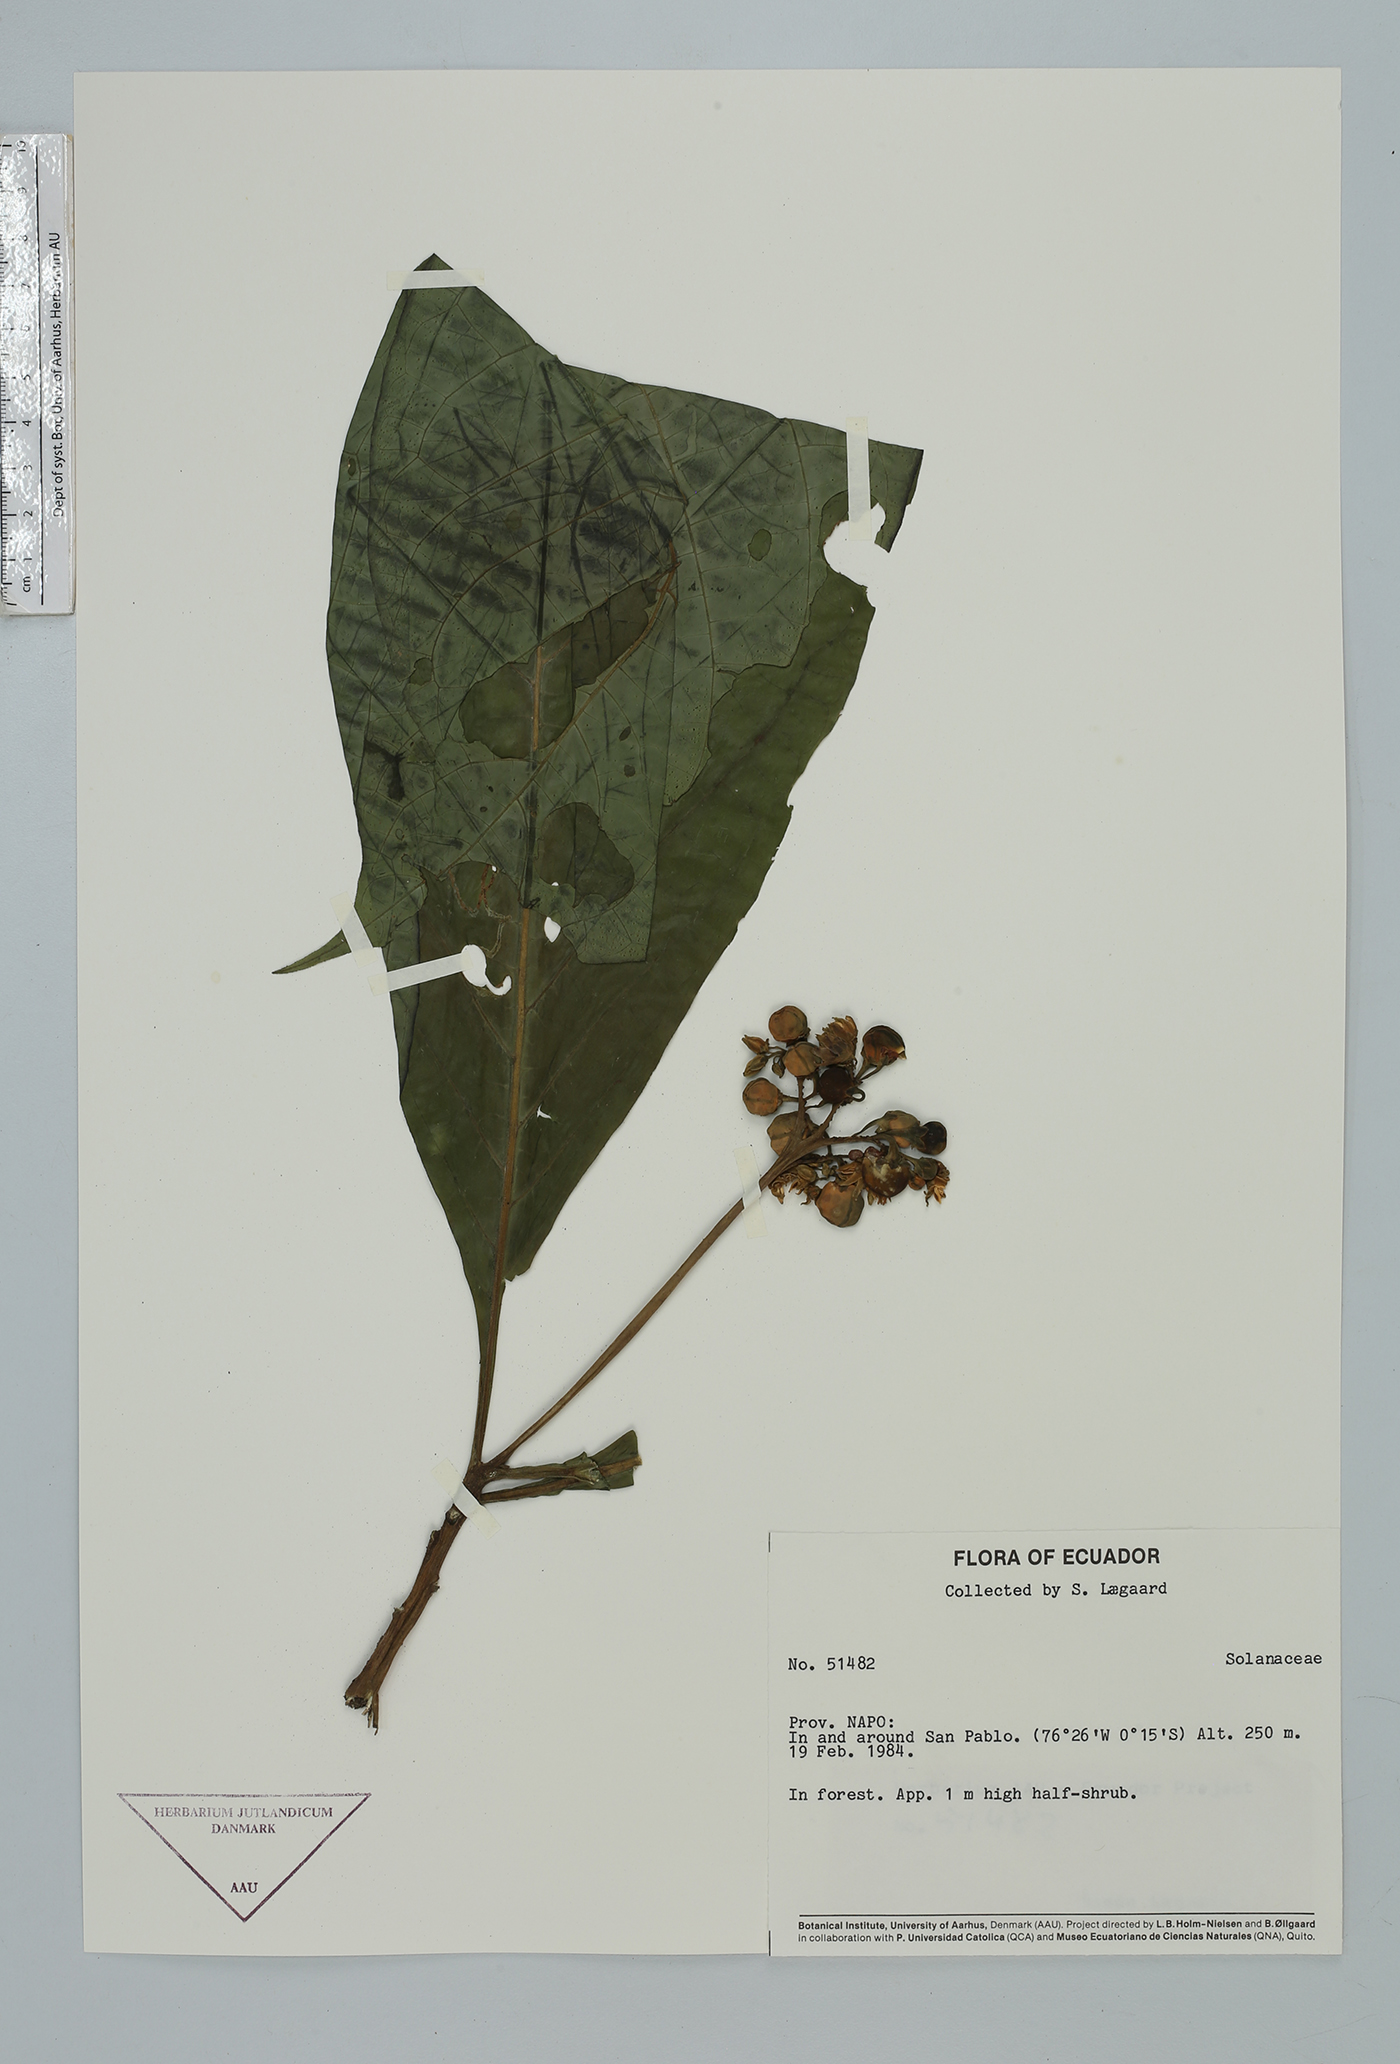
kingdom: Plantae
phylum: Tracheophyta
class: Magnoliopsida
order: Solanales
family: Solanaceae
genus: Solanum
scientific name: Solanum
